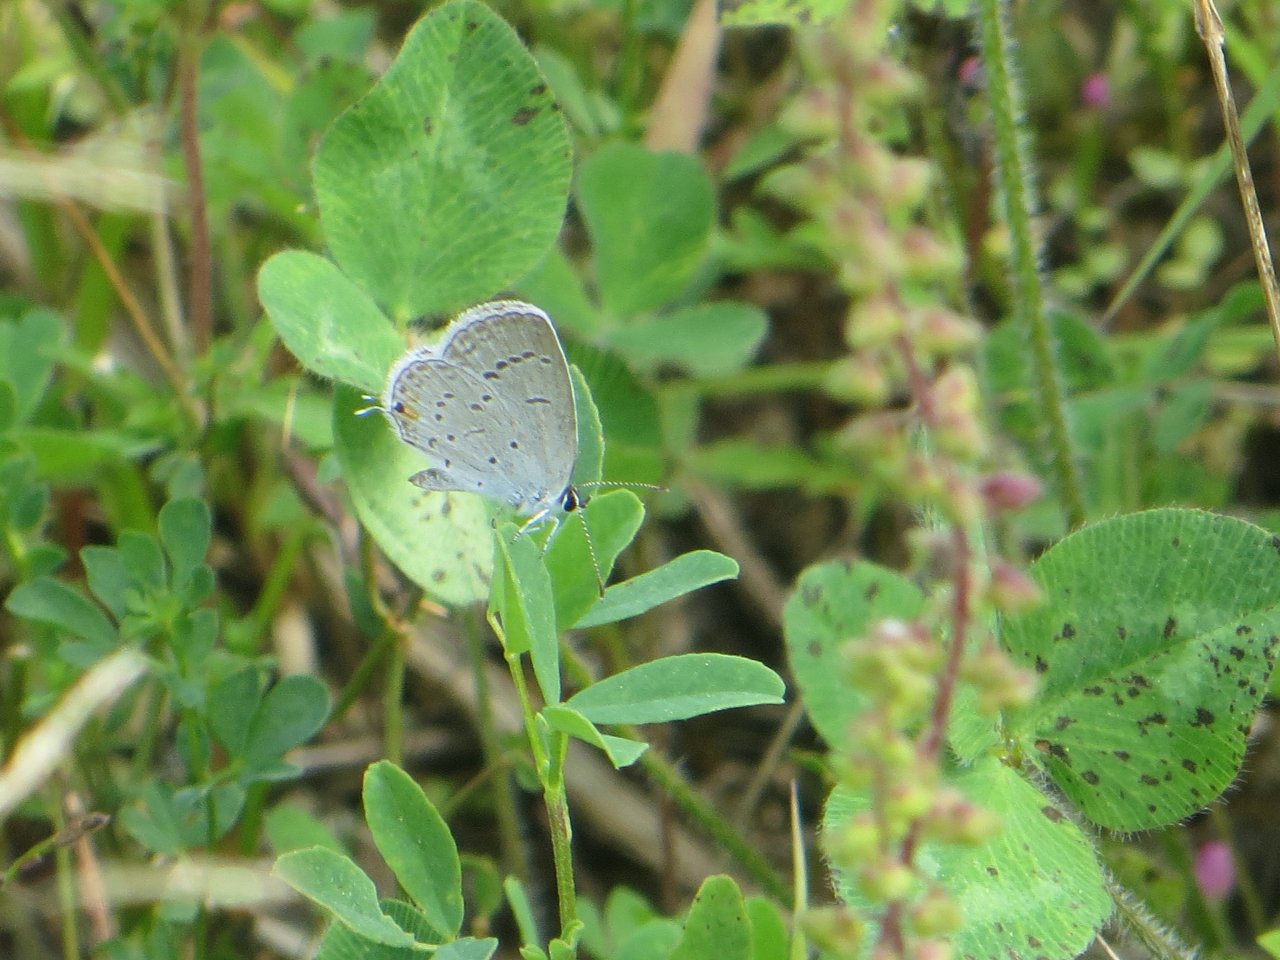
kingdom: Animalia
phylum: Arthropoda
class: Insecta
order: Lepidoptera
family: Lycaenidae
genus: Elkalyce
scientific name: Elkalyce comyntas
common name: Eastern Tailed-Blue
